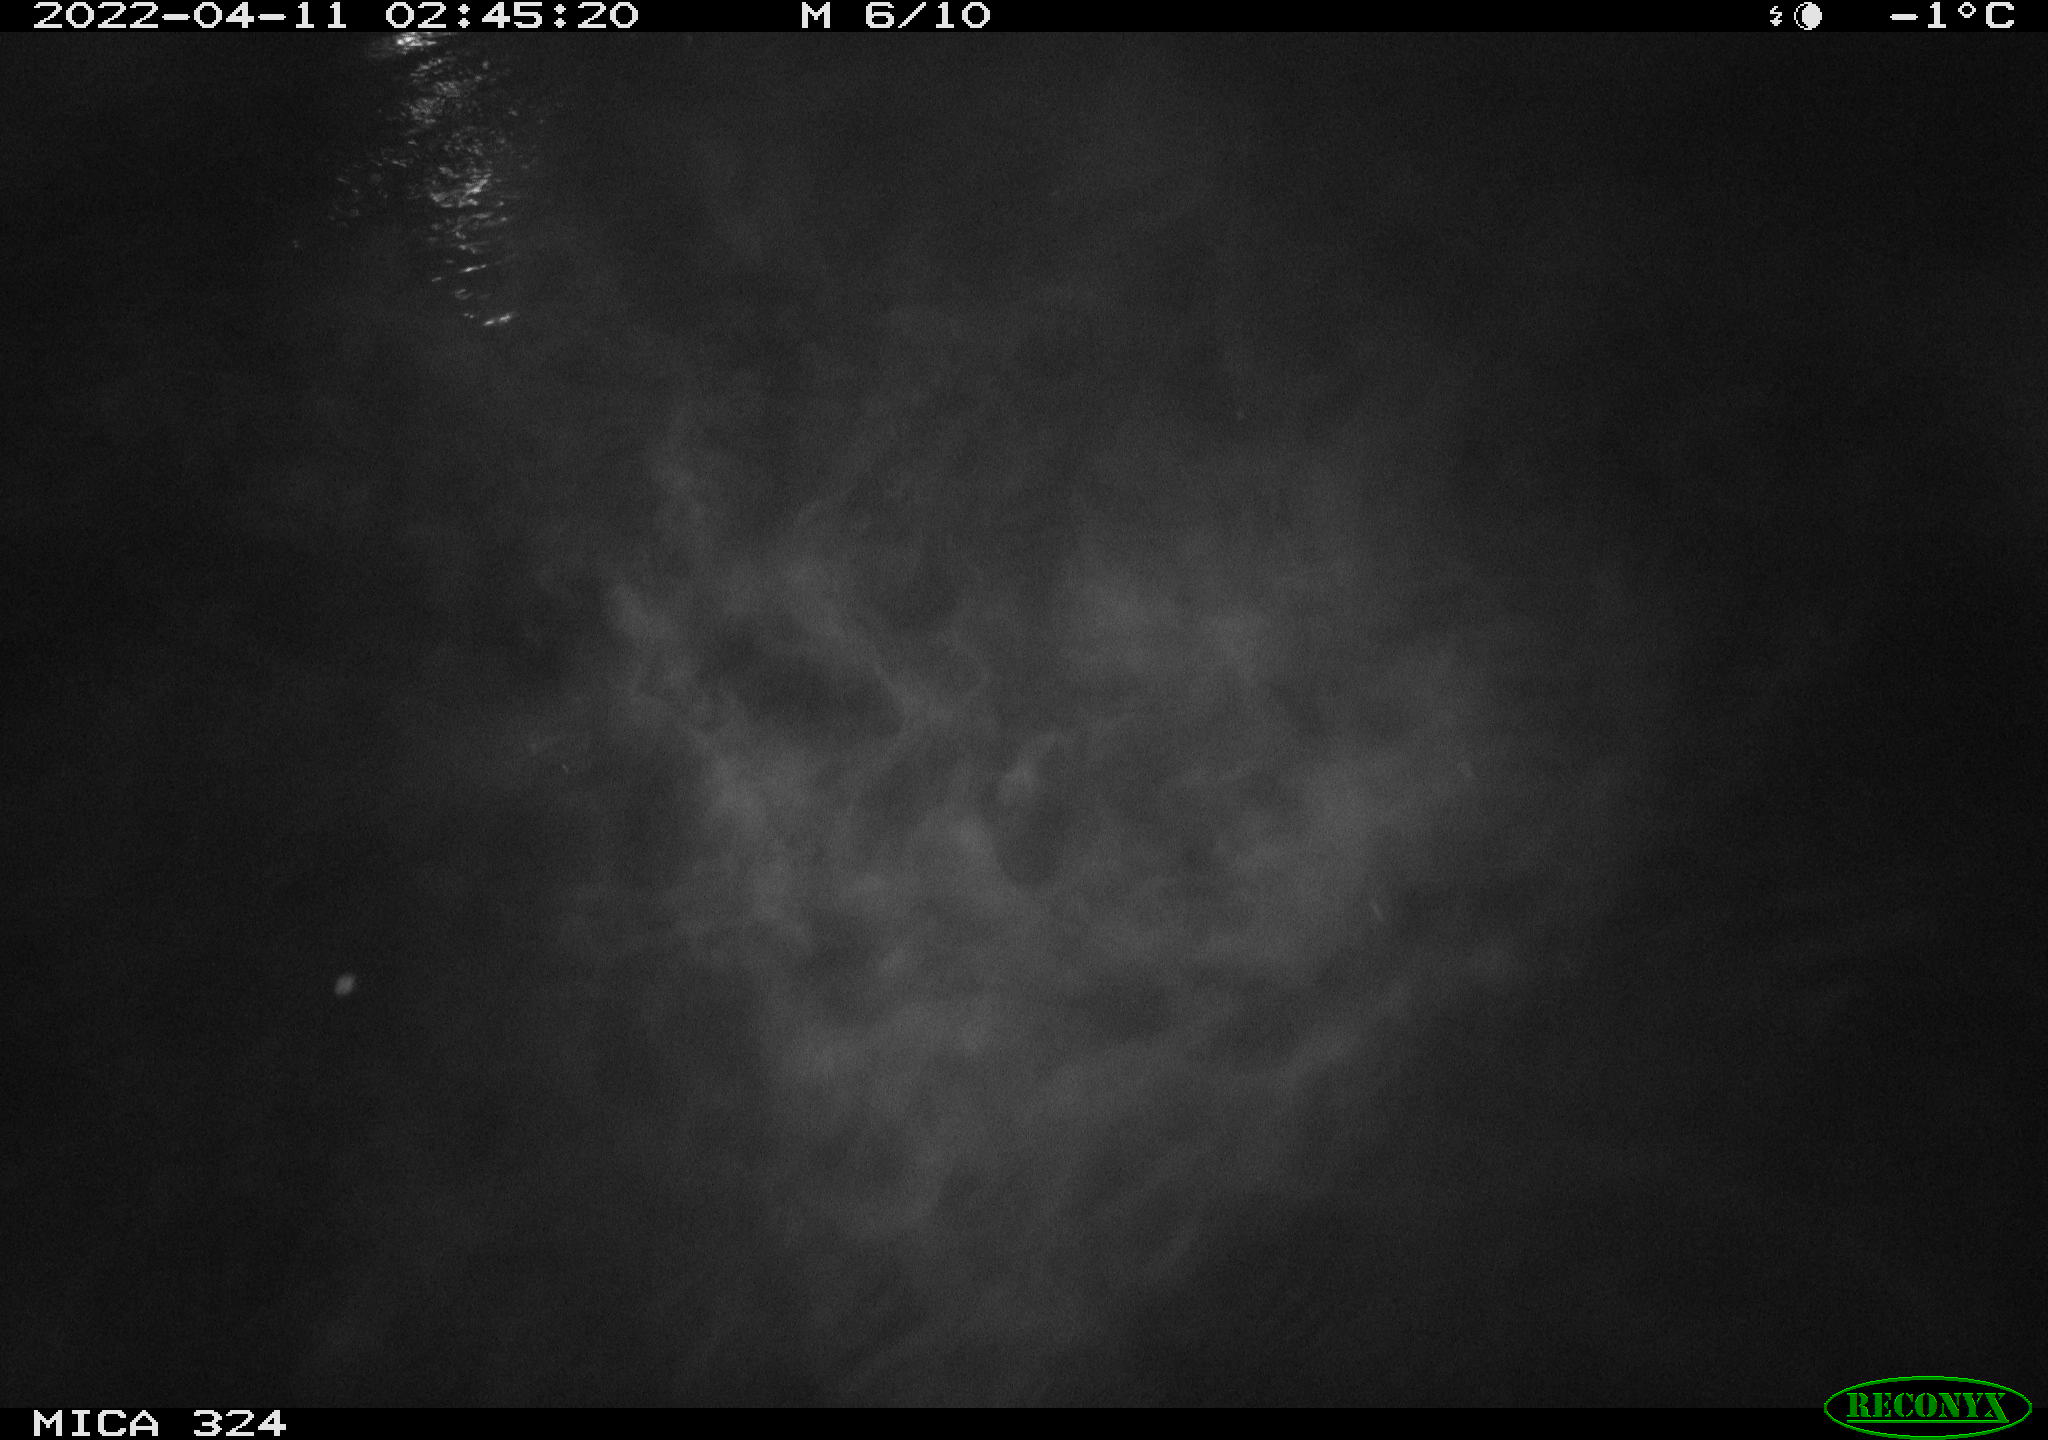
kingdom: Animalia
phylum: Chordata
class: Mammalia
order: Rodentia
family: Cricetidae
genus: Ondatra
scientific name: Ondatra zibethicus
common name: Muskrat
